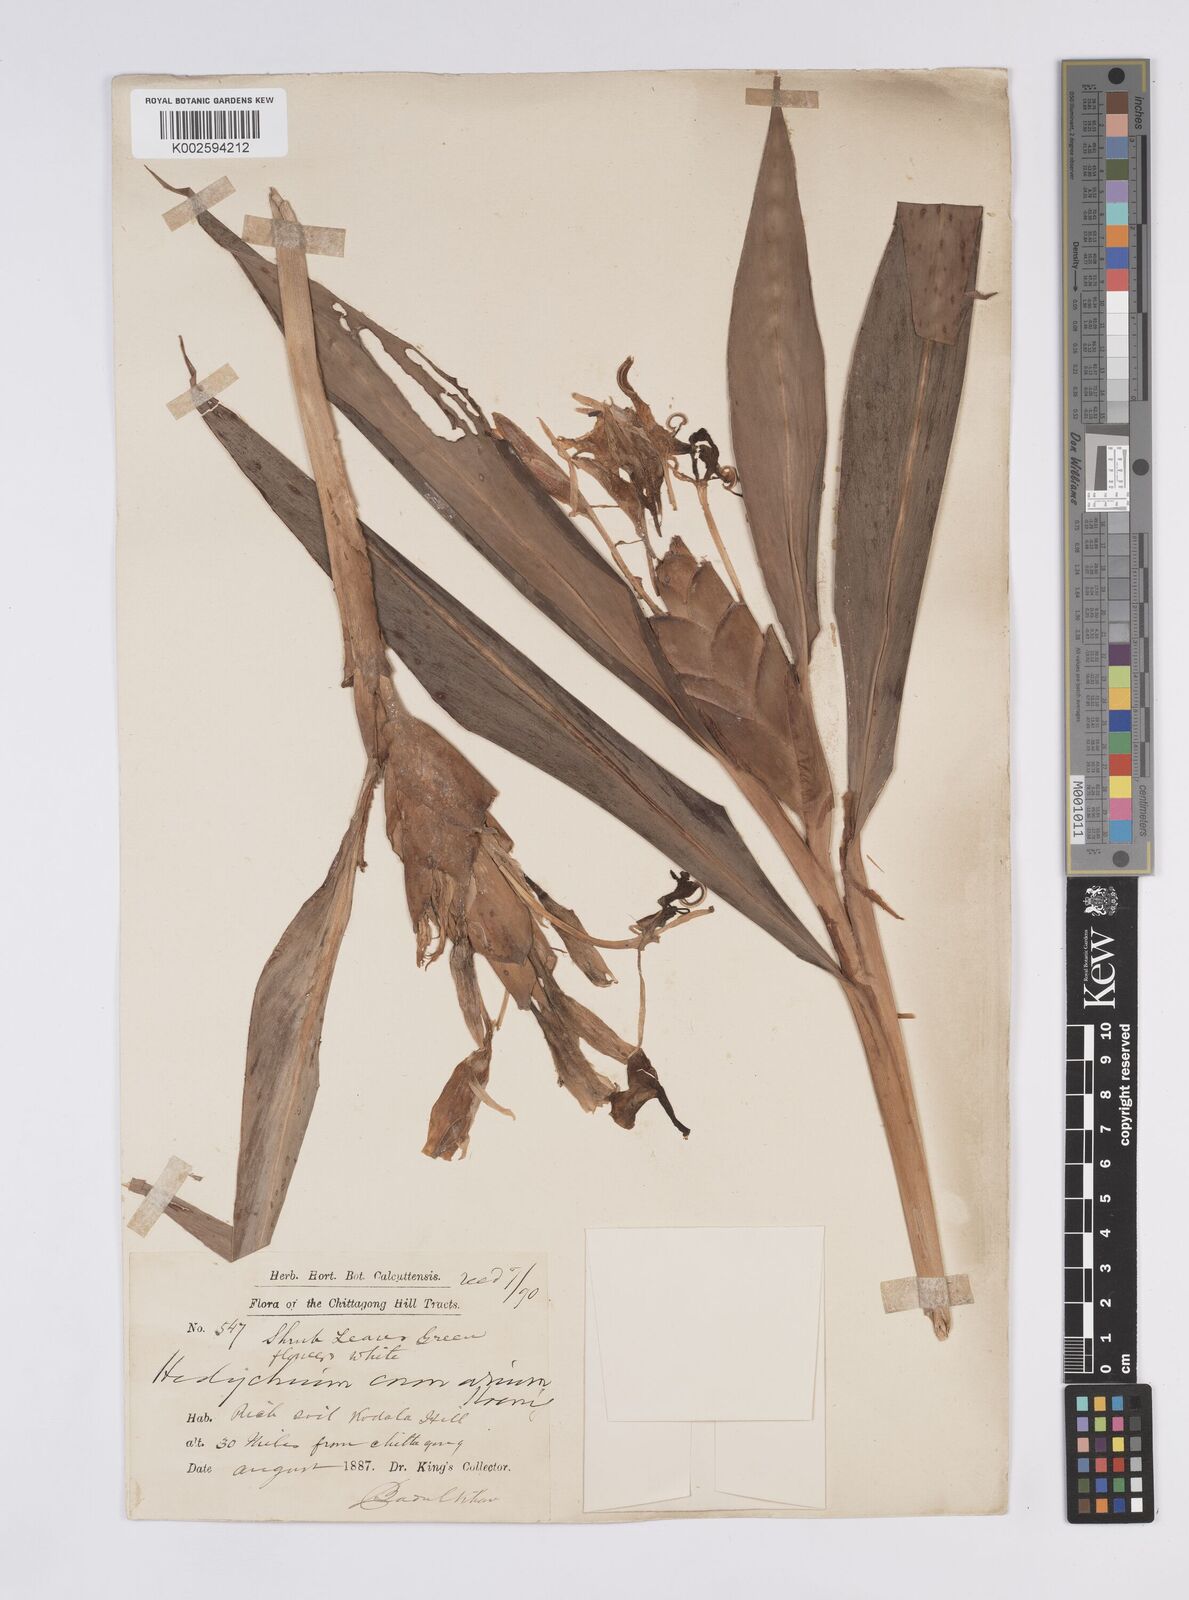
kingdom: Plantae
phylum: Tracheophyta
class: Liliopsida
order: Zingiberales
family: Zingiberaceae
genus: Hedychium
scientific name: Hedychium coronarium
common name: White garland-lily
